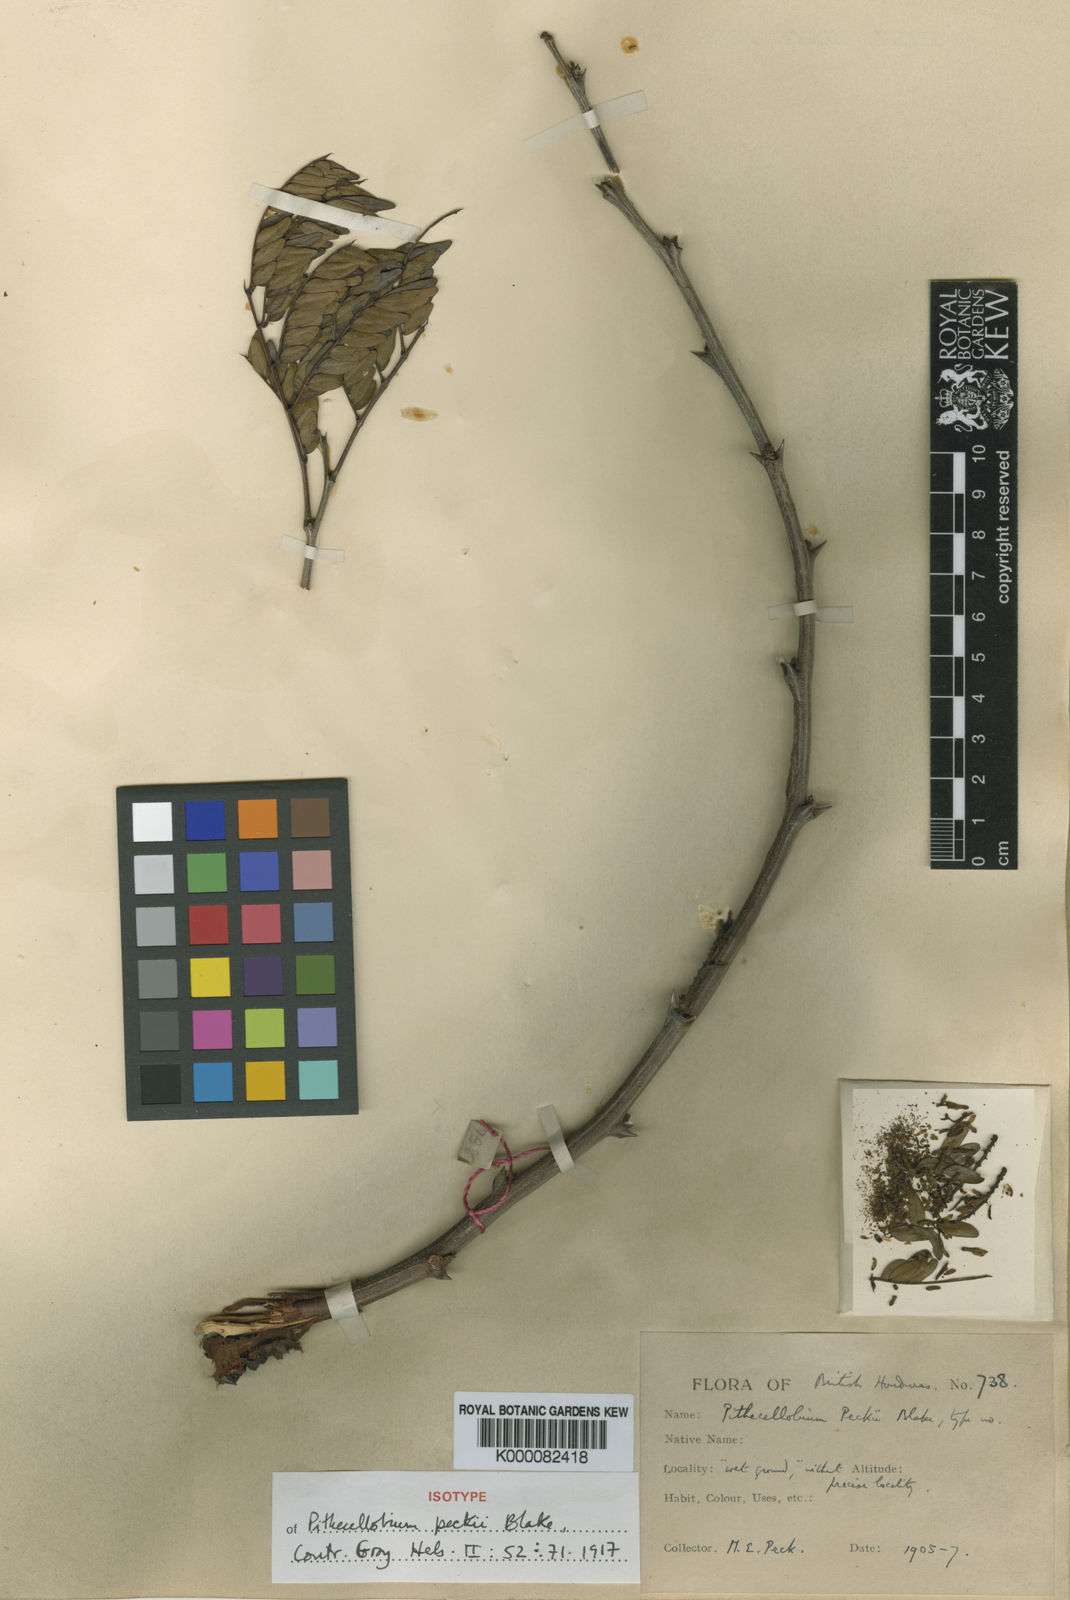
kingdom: Plantae
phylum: Tracheophyta
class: Magnoliopsida
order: Fabales
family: Fabaceae
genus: Pithecellobium
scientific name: Pithecellobium peckii
